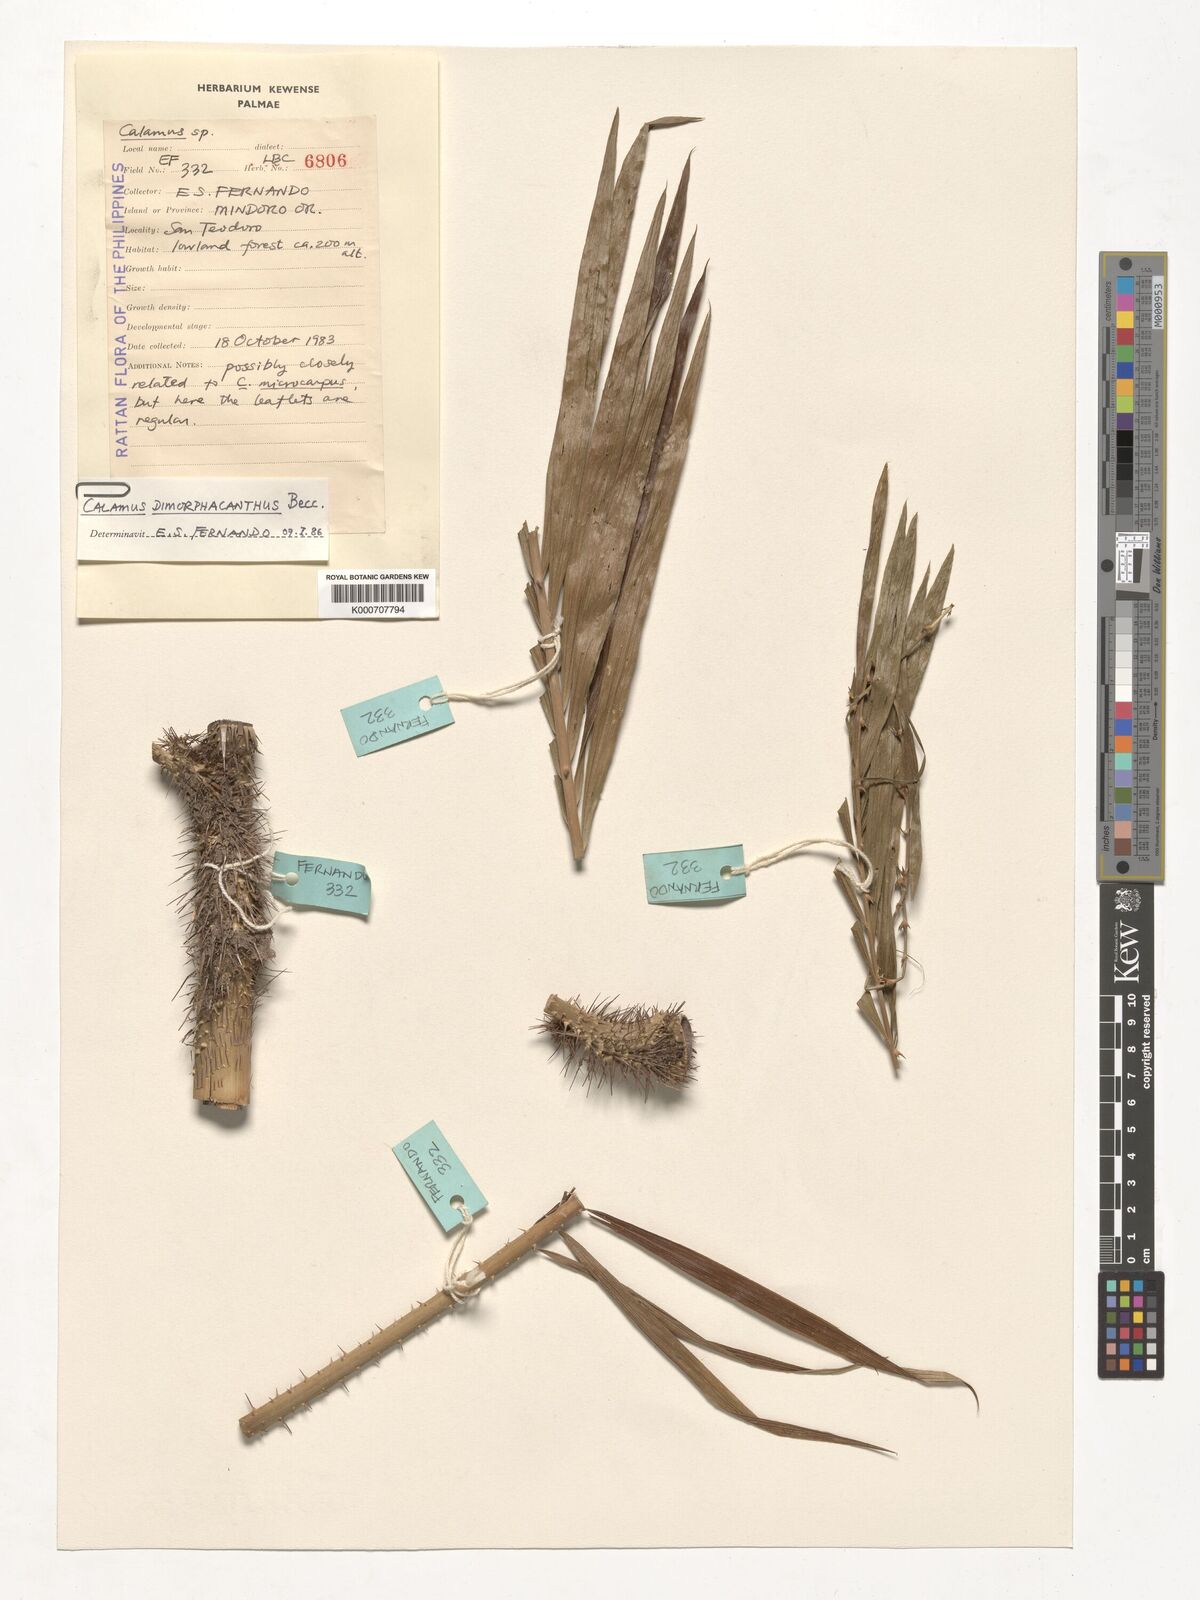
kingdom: Plantae
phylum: Tracheophyta
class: Liliopsida
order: Arecales
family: Arecaceae
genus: Calamus
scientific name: Calamus siphonospathus
